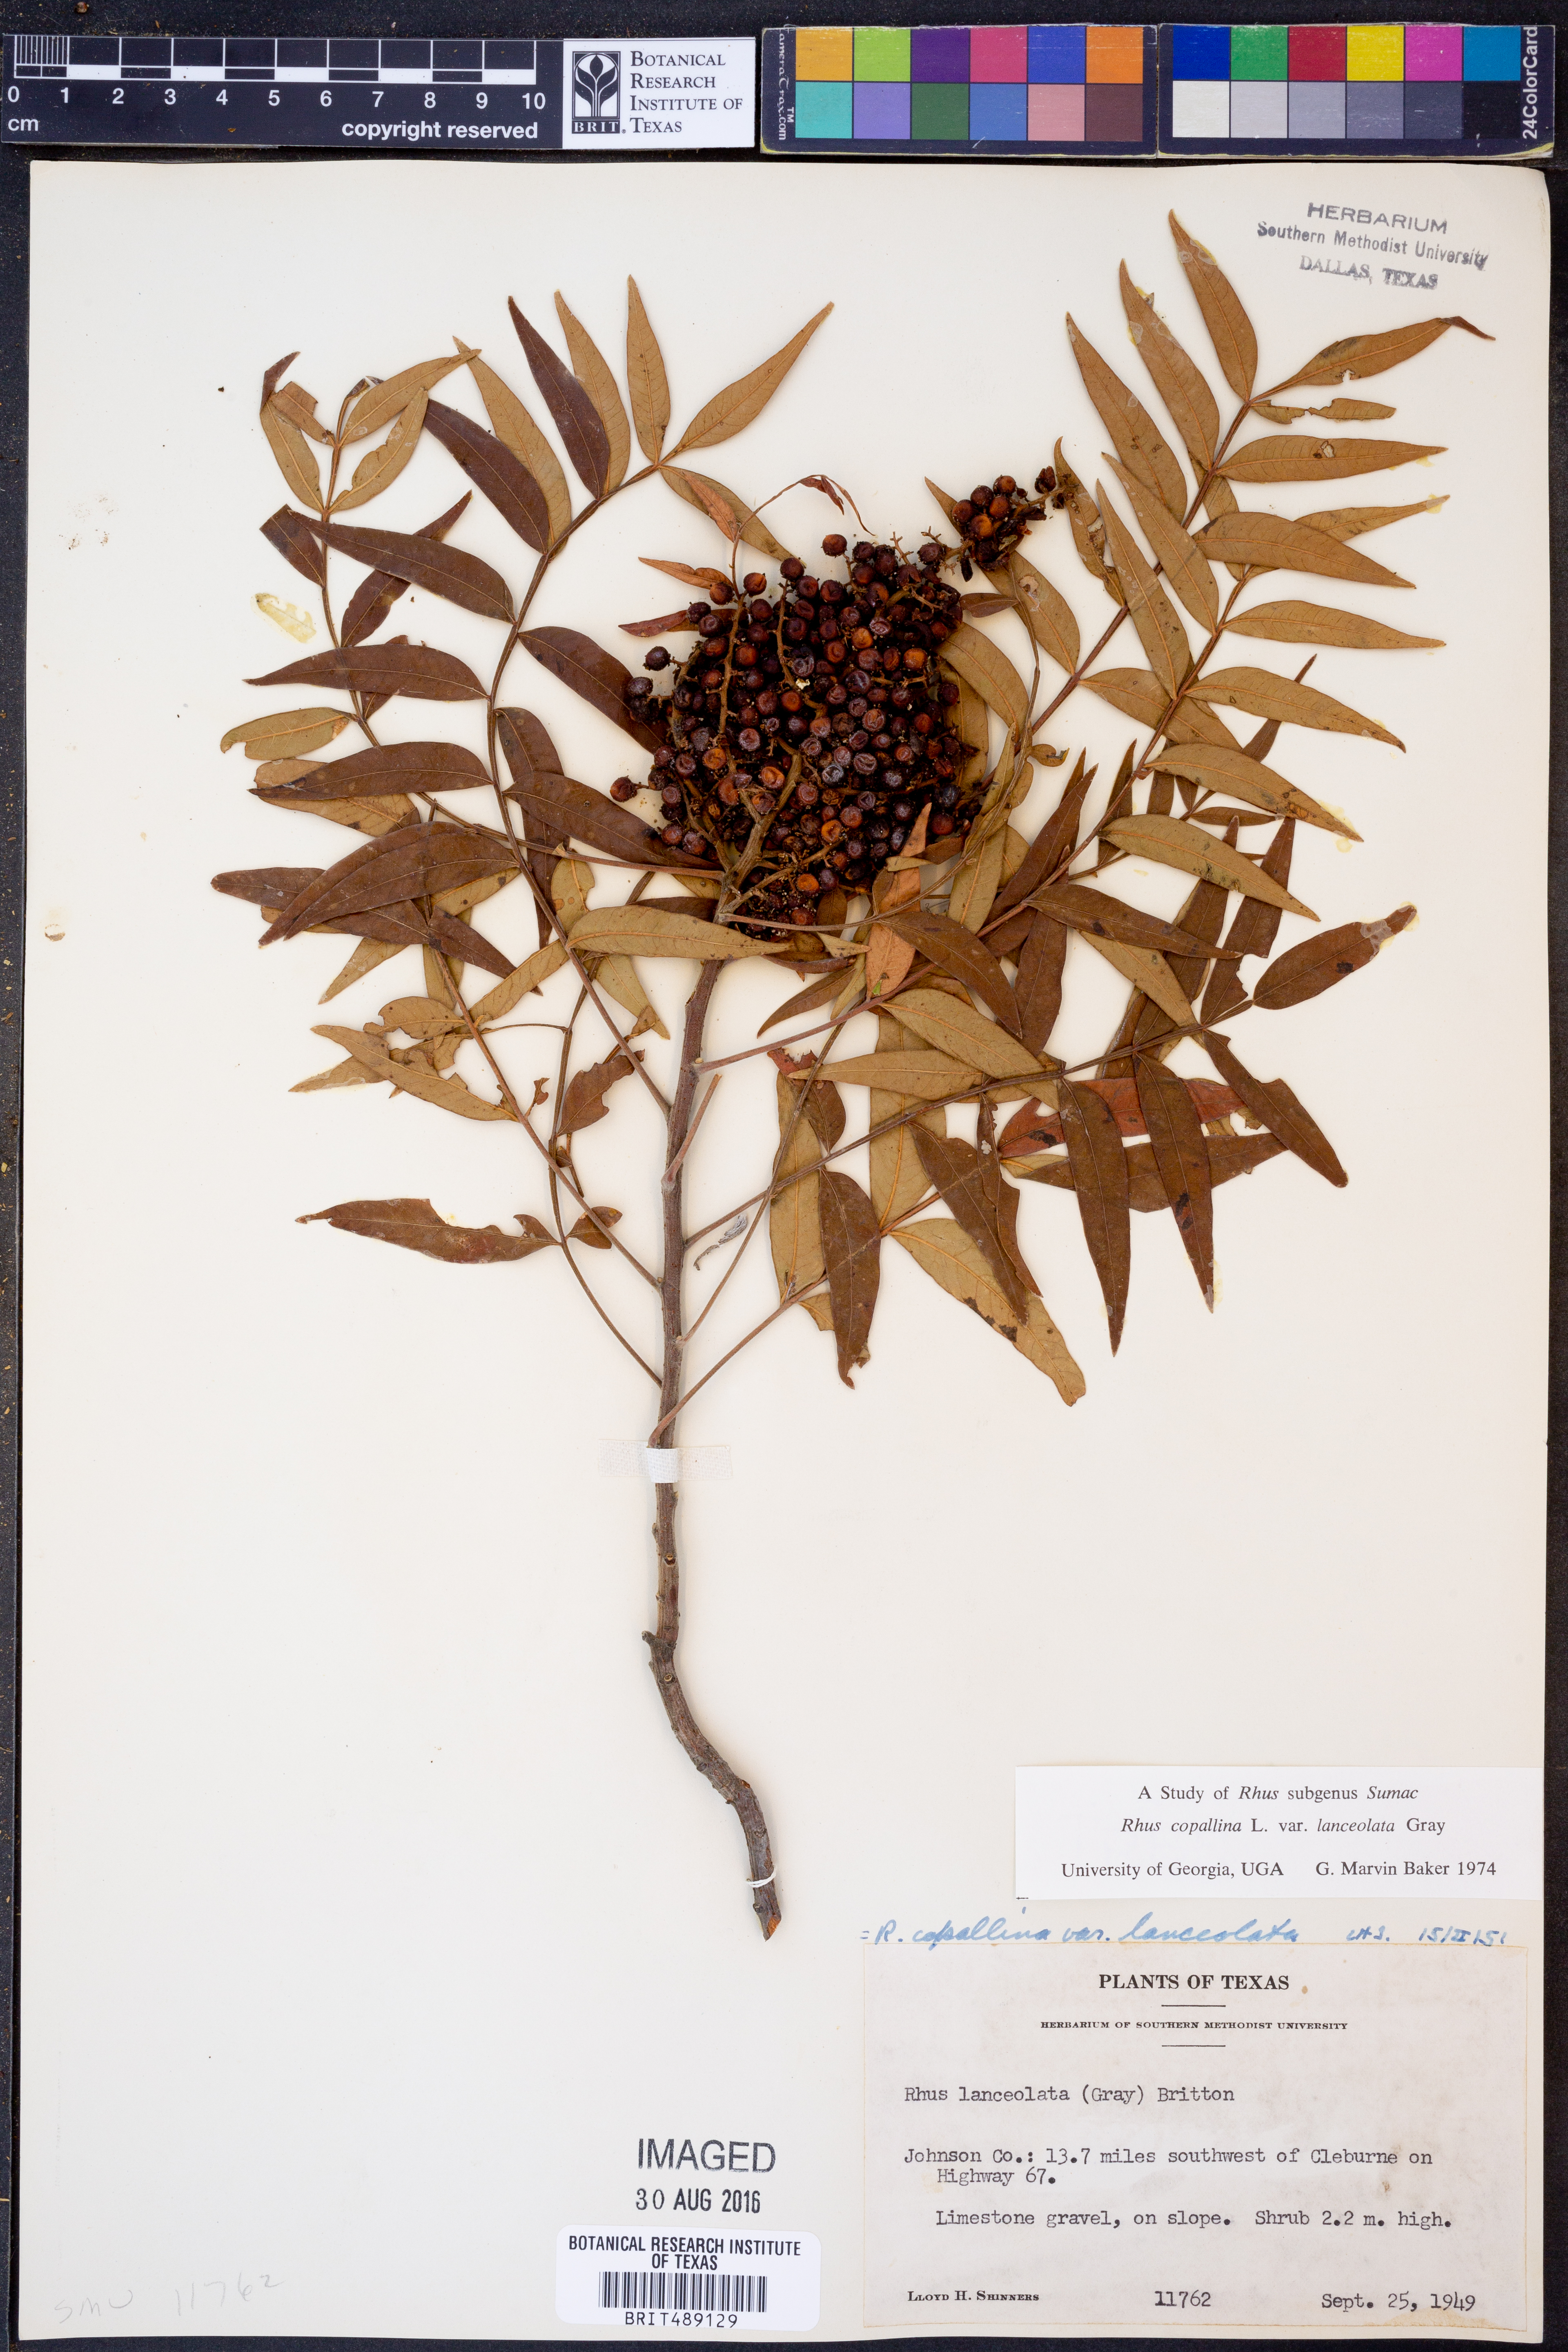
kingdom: Plantae
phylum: Tracheophyta
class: Magnoliopsida
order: Sapindales
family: Anacardiaceae
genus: Rhus
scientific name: Rhus lanceolata
